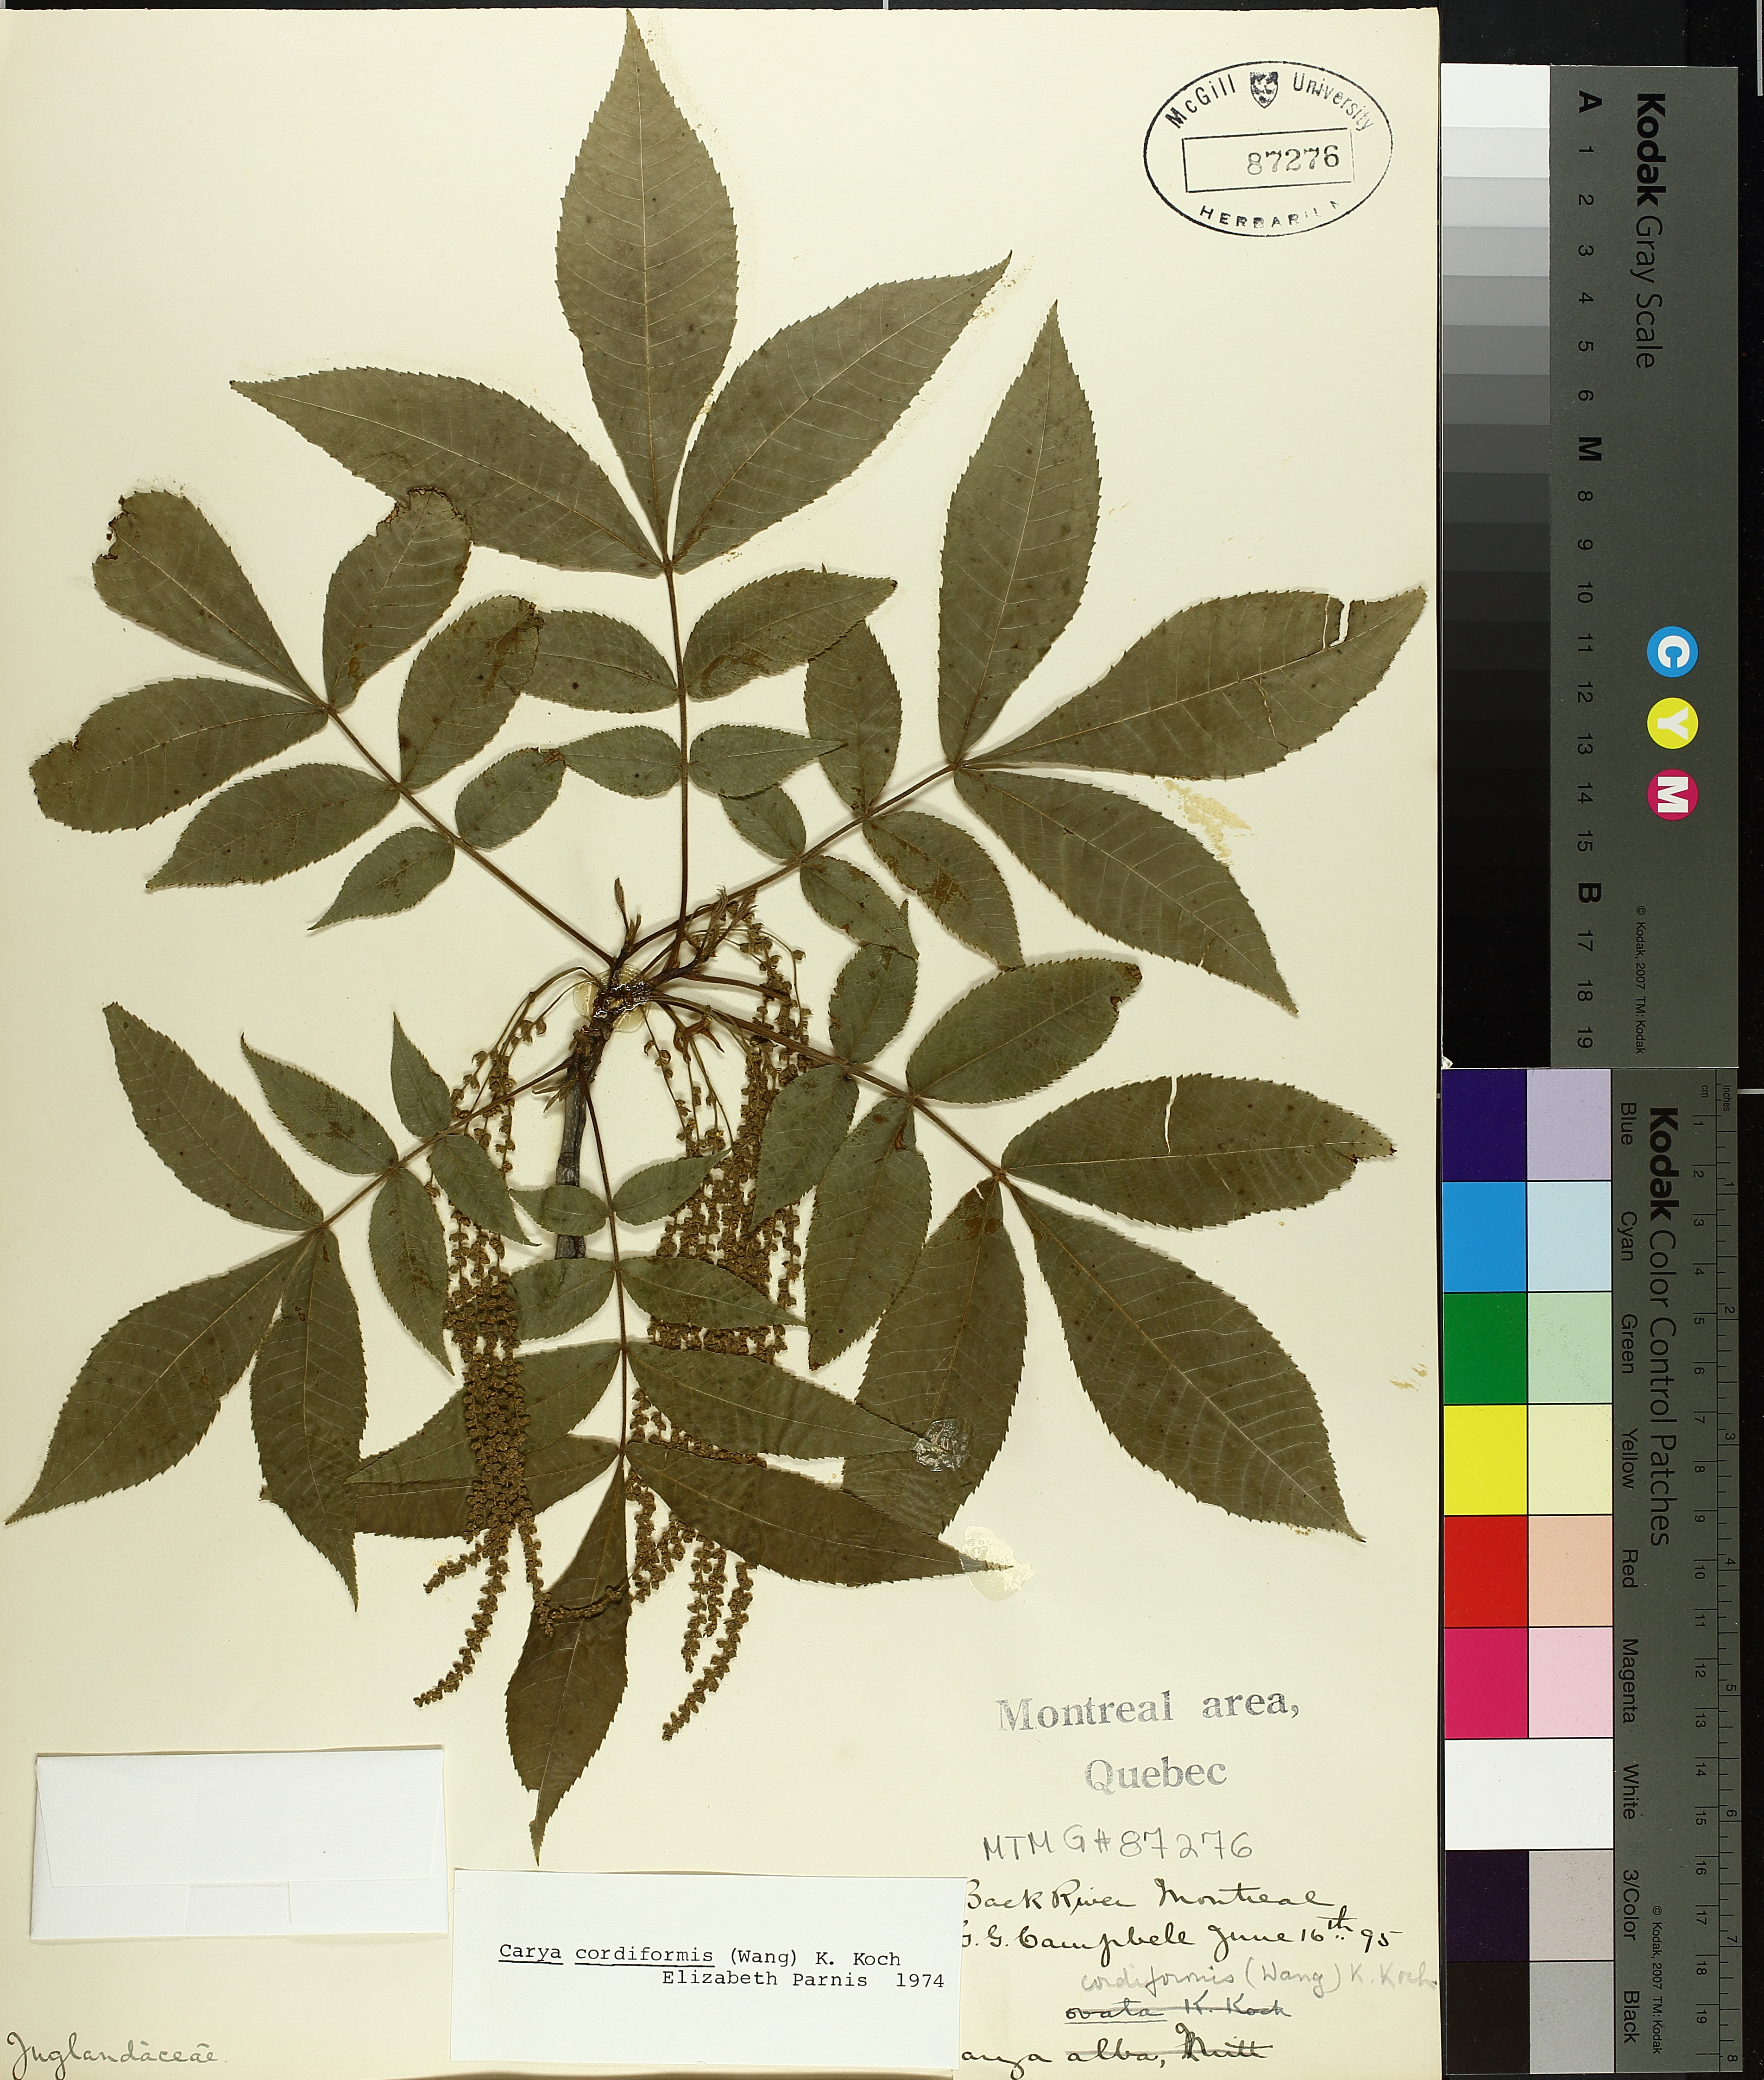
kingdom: Plantae
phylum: Tracheophyta
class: Magnoliopsida
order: Fagales
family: Juglandaceae
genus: Carya
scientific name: Carya cordiformis
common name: Bitternut hickory
